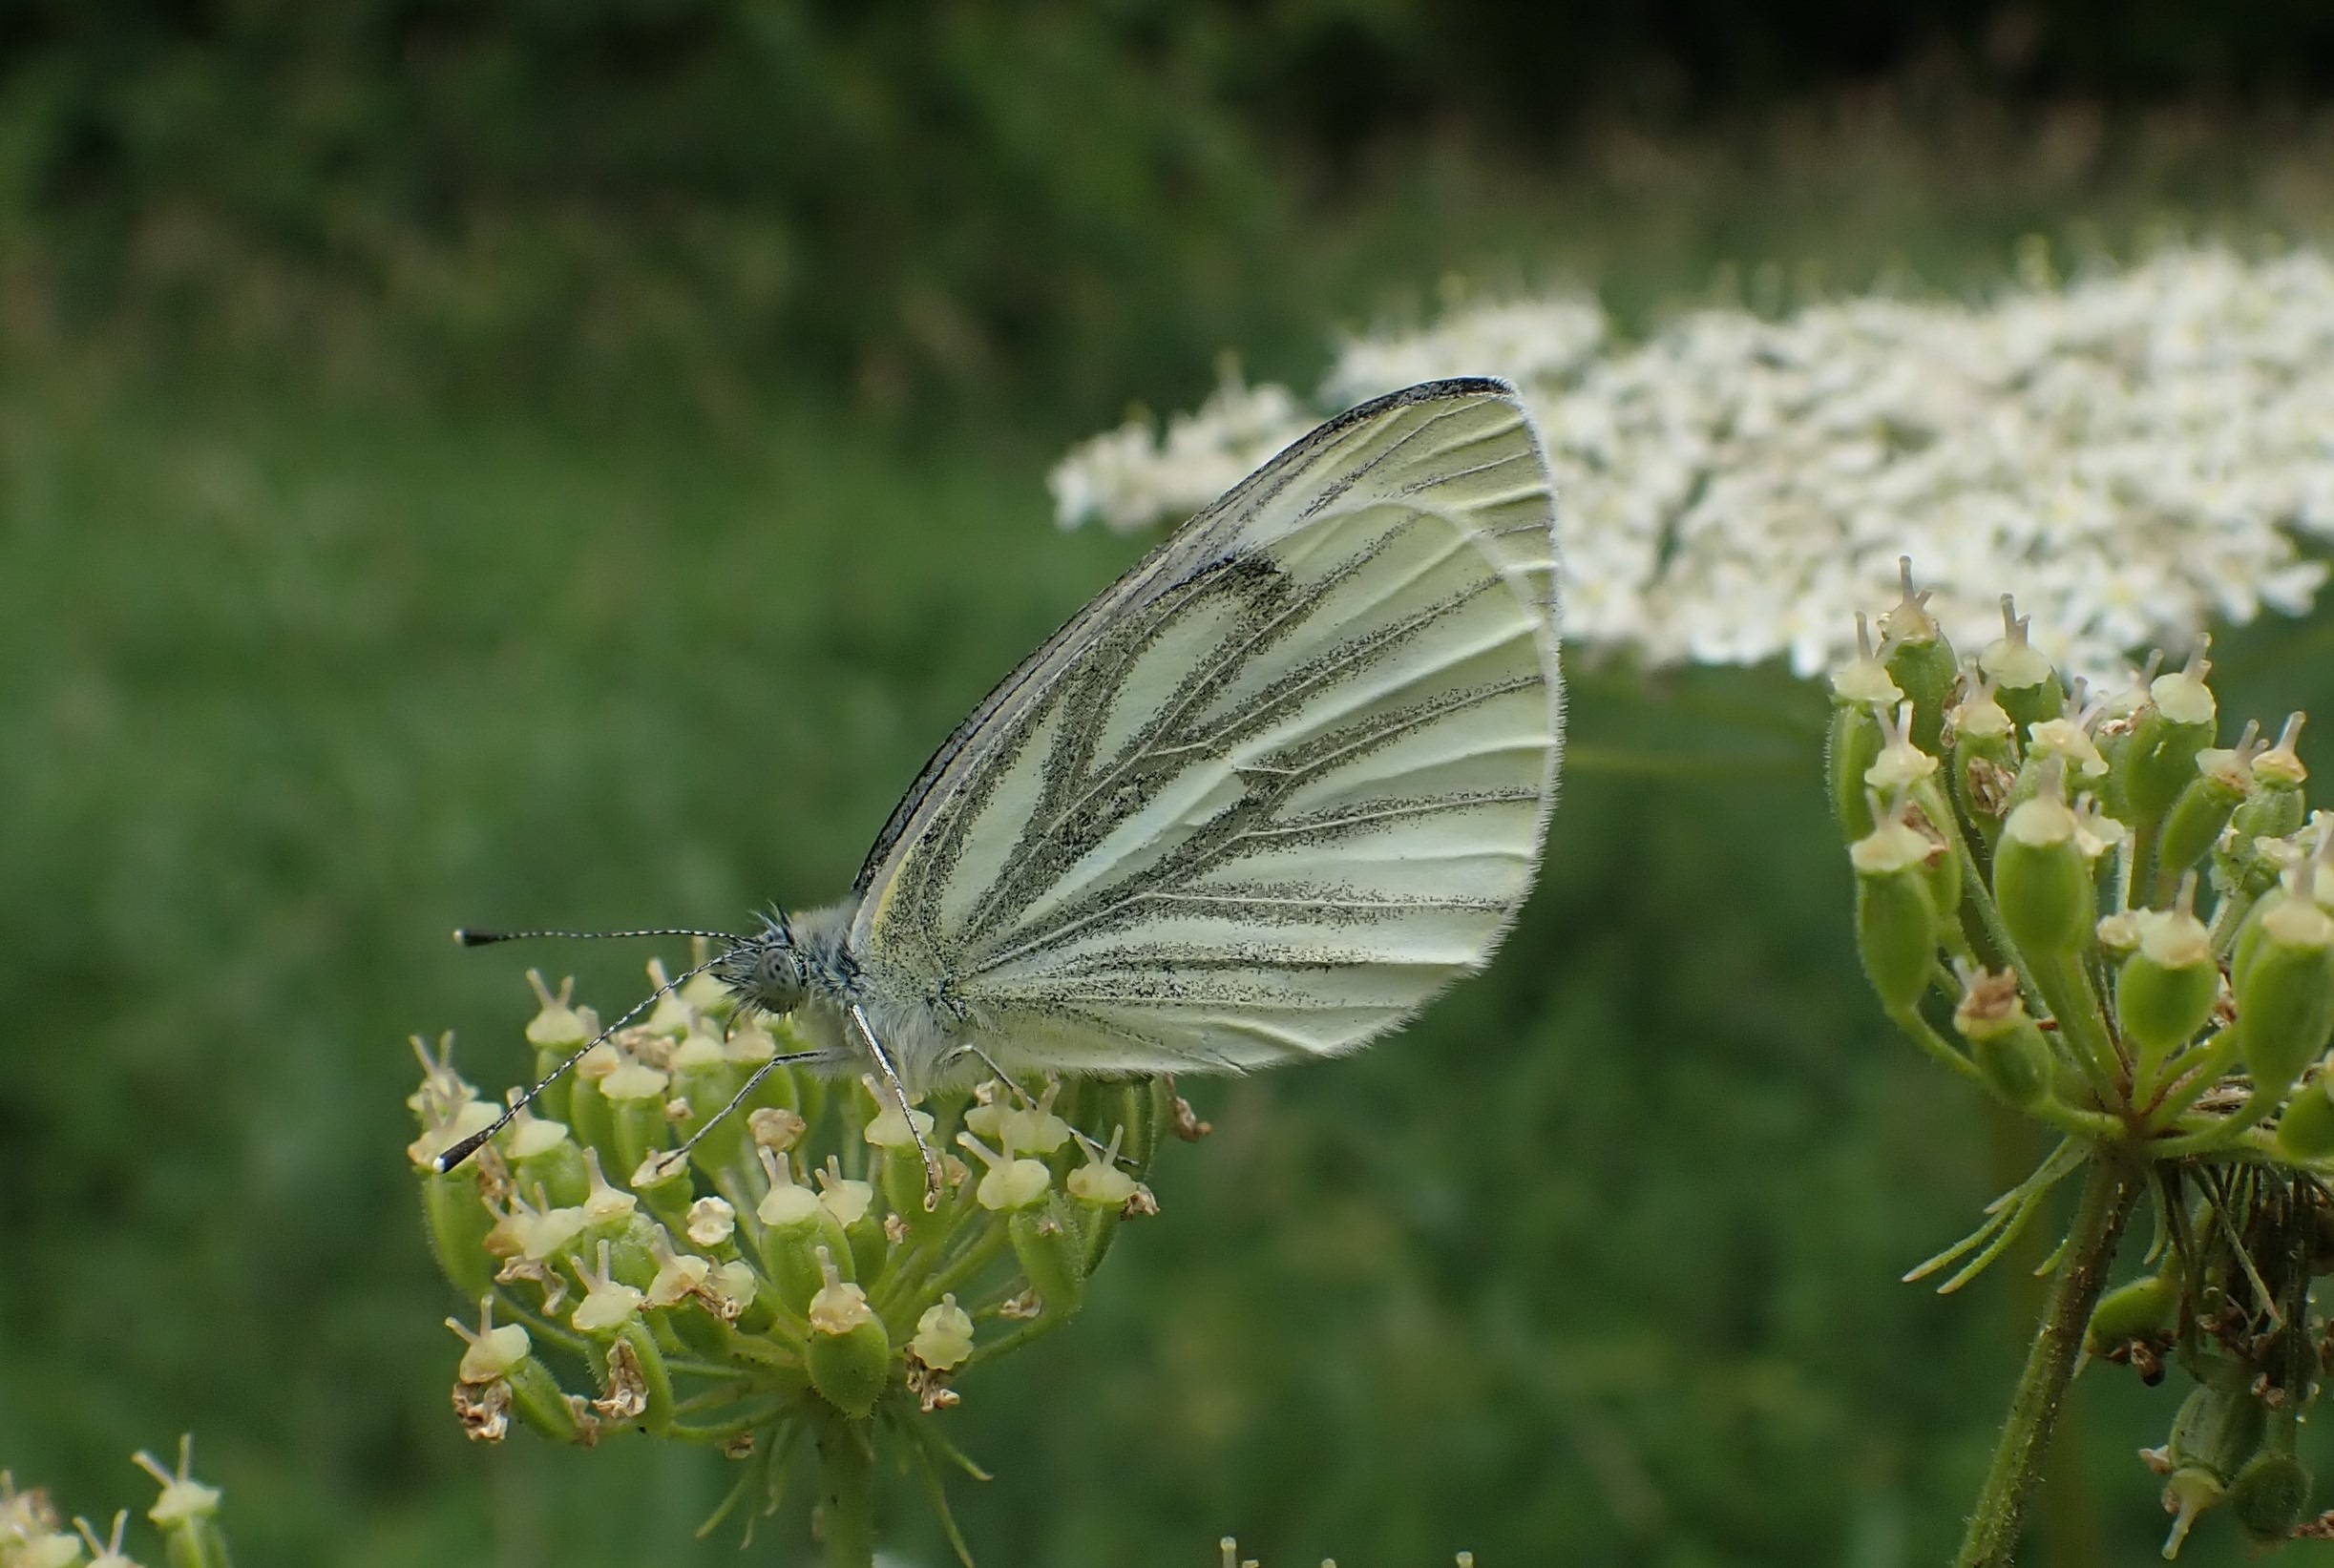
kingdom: Animalia
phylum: Arthropoda
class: Insecta
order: Lepidoptera
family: Pieridae
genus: Pieris
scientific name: Pieris napi
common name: Grønåret kålsommerfugl
